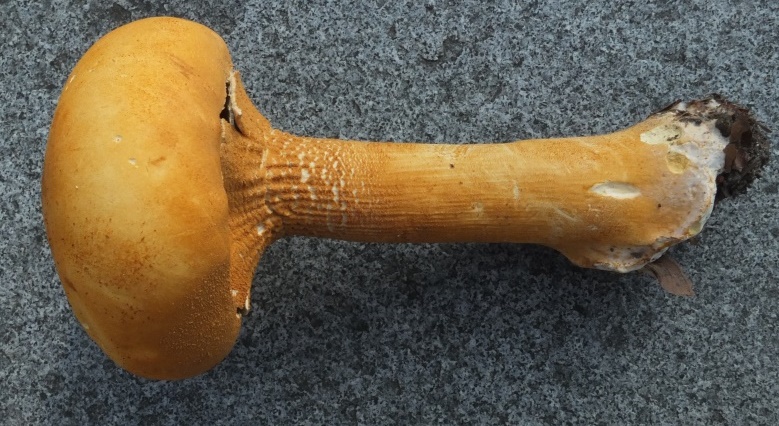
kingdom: Fungi
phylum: Basidiomycota
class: Agaricomycetes
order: Agaricales
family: Tricholomataceae
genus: Phaeolepiota
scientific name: Phaeolepiota aurea
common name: gyldenhat
